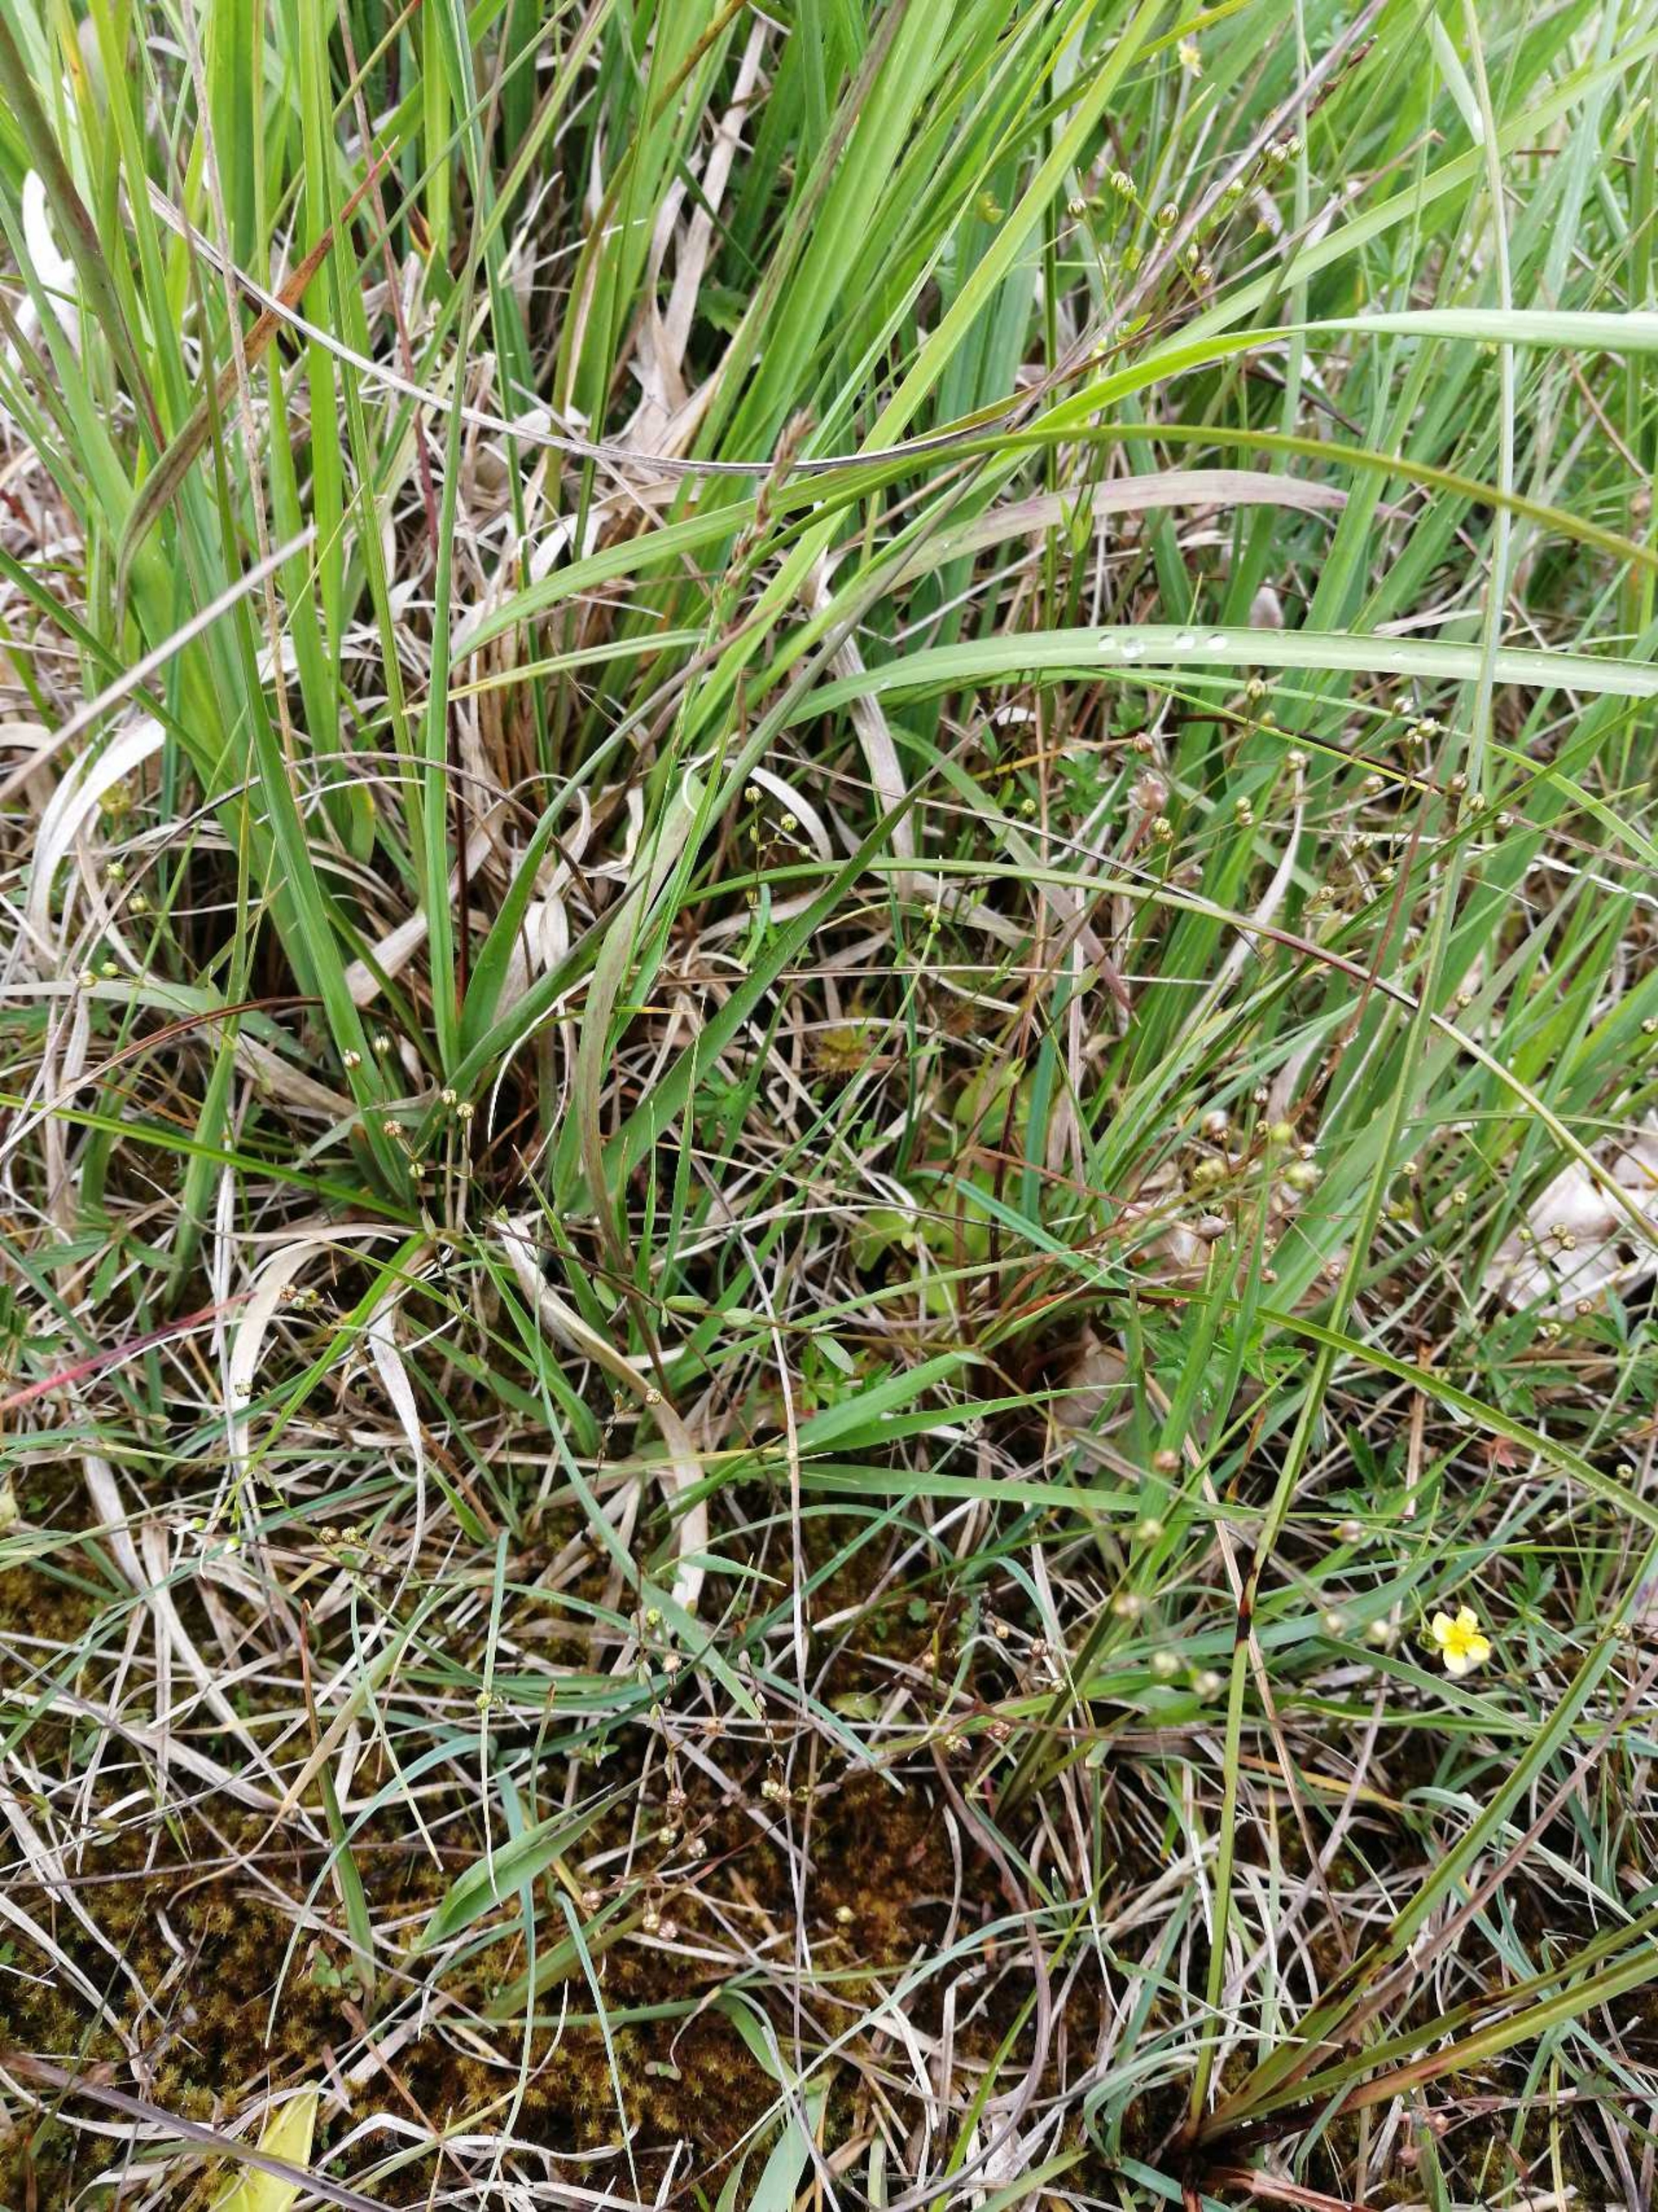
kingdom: Plantae
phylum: Tracheophyta
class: Magnoliopsida
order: Malpighiales
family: Linaceae
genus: Linum
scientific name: Linum catharticum
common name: Vild hør
